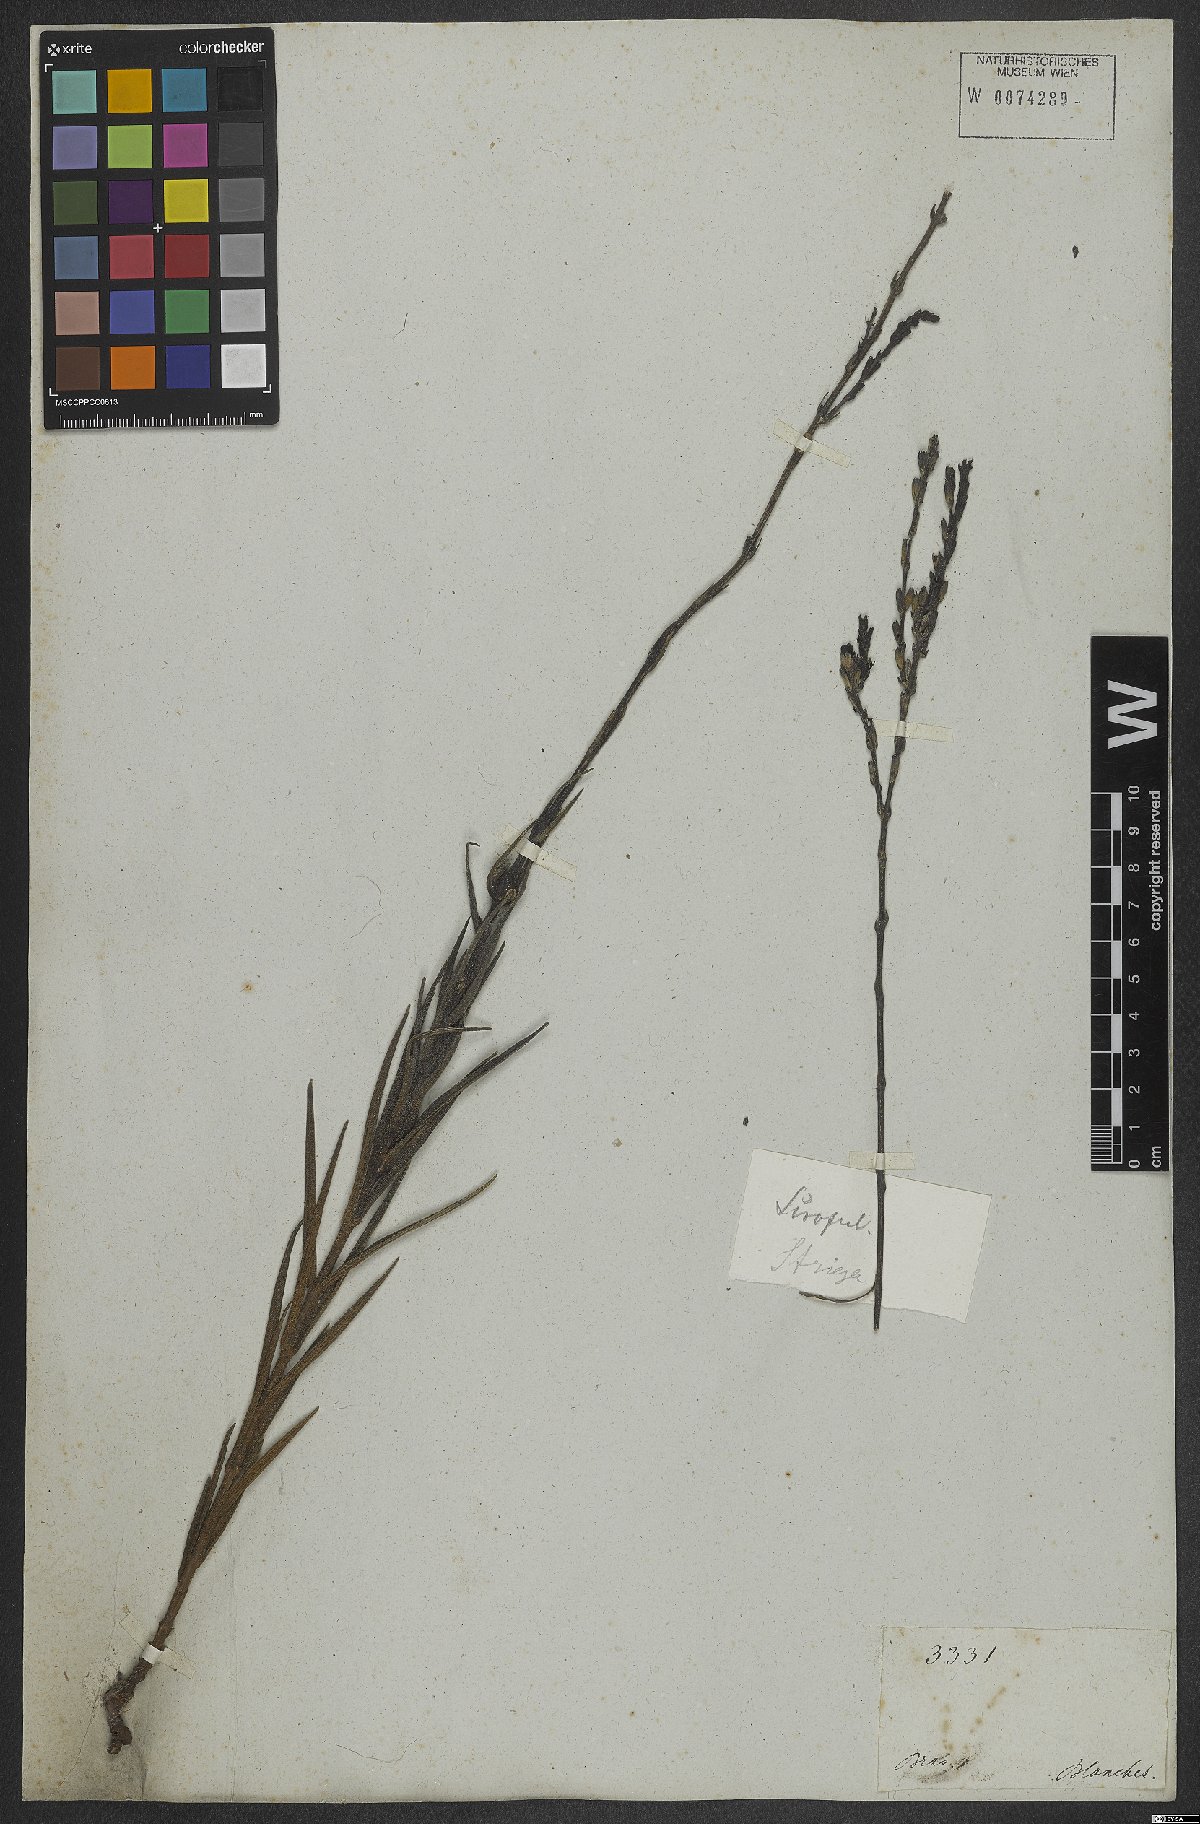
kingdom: Plantae
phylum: Tracheophyta
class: Magnoliopsida
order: Lamiales
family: Orobanchaceae
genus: Buchnera
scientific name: Buchnera disticha
